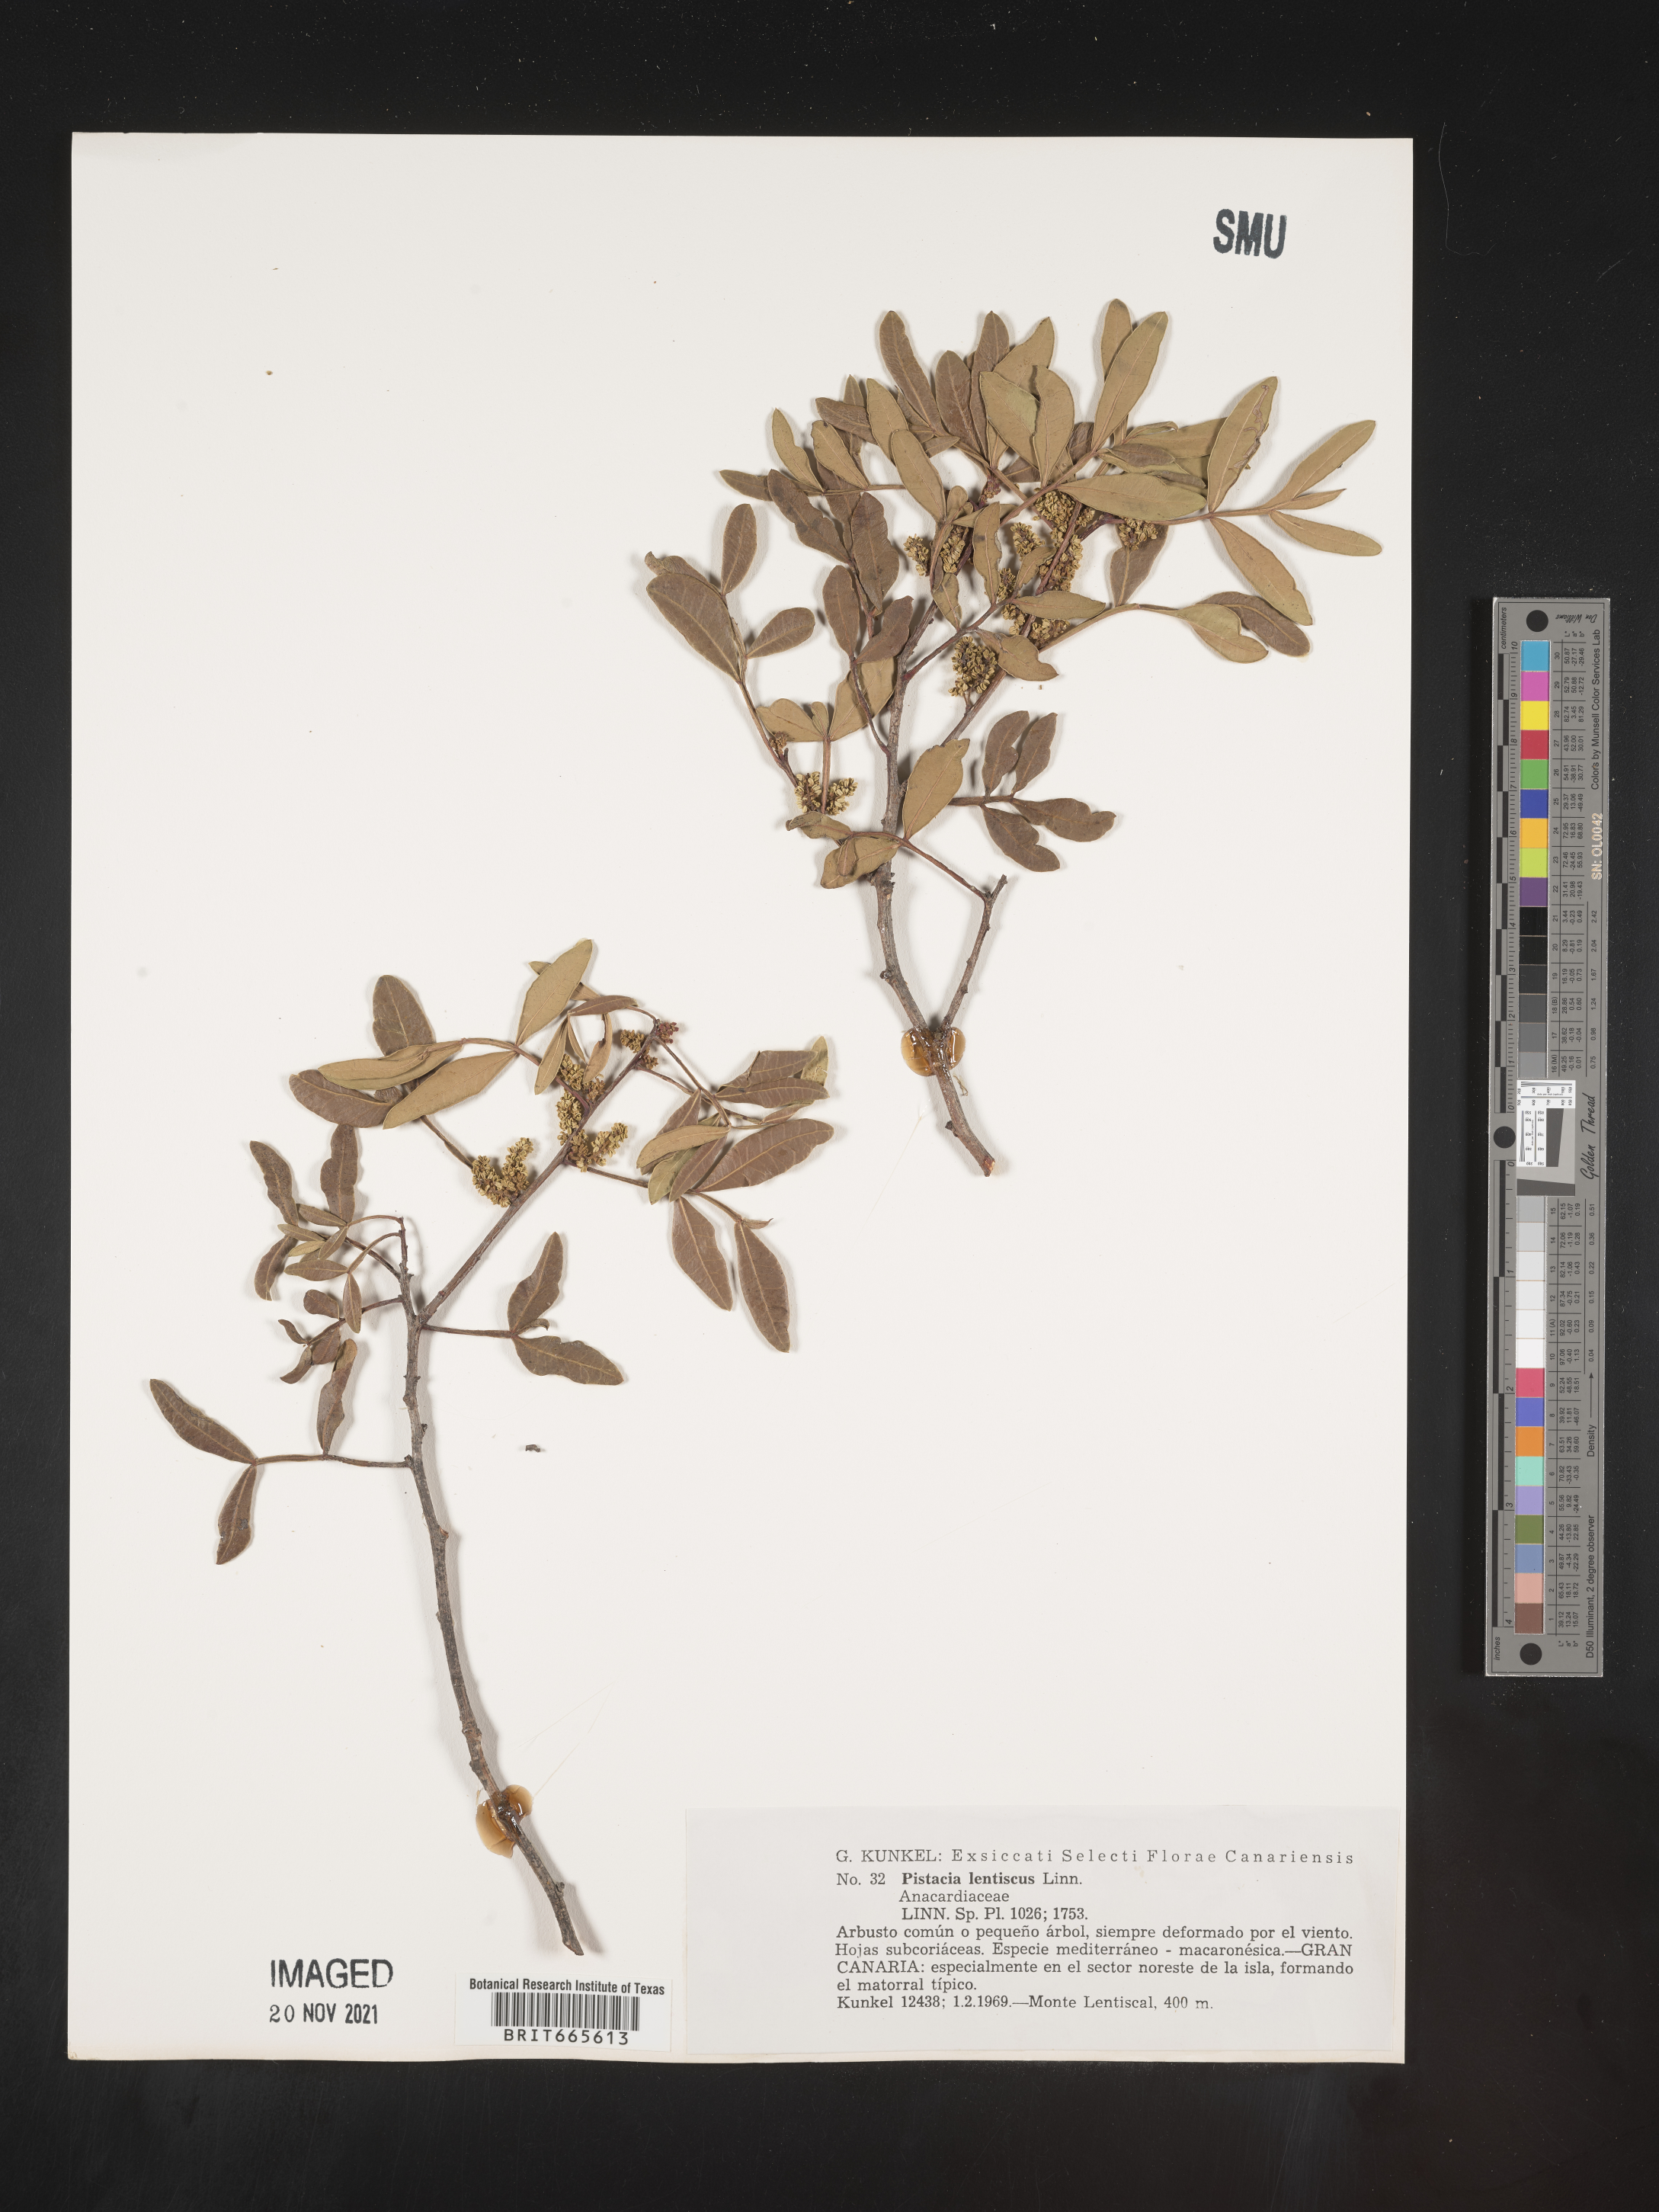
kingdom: Plantae
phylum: Tracheophyta
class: Magnoliopsida
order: Sapindales
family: Anacardiaceae
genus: Pistacia
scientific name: Pistacia
